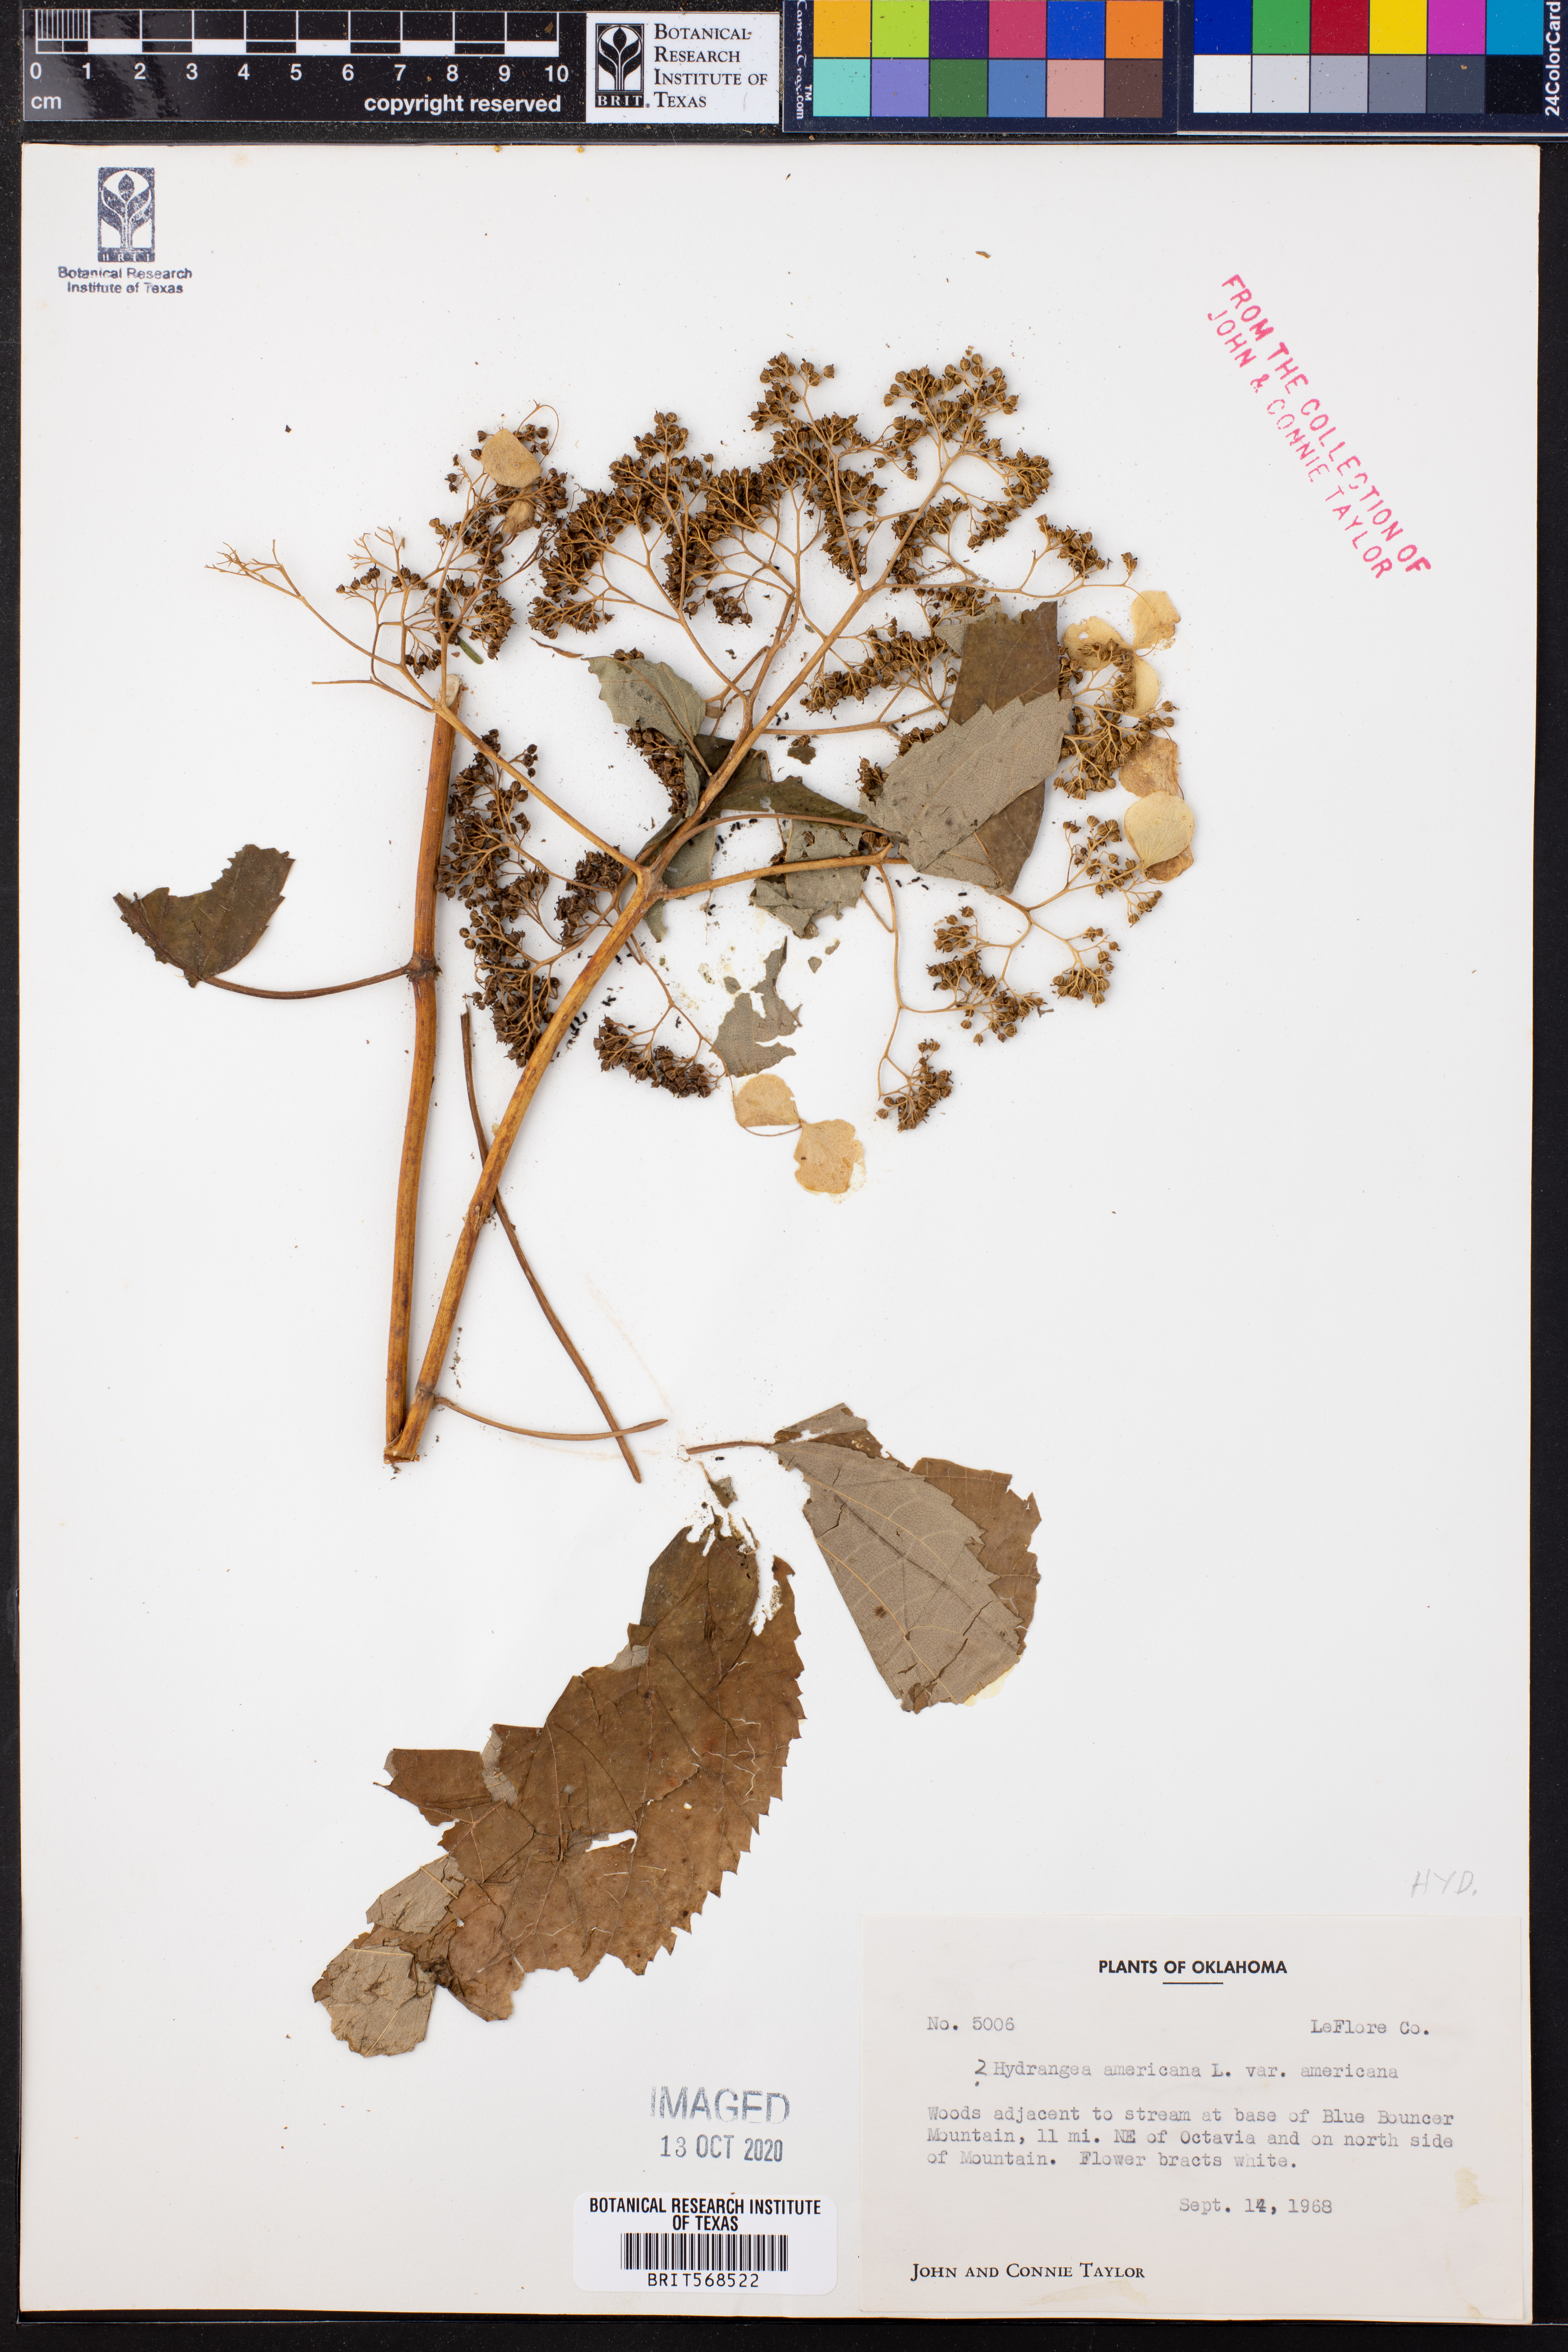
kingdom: Plantae
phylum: Tracheophyta
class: Magnoliopsida
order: Cornales
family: Hydrangeaceae
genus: Hydrangea
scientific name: Hydrangea
